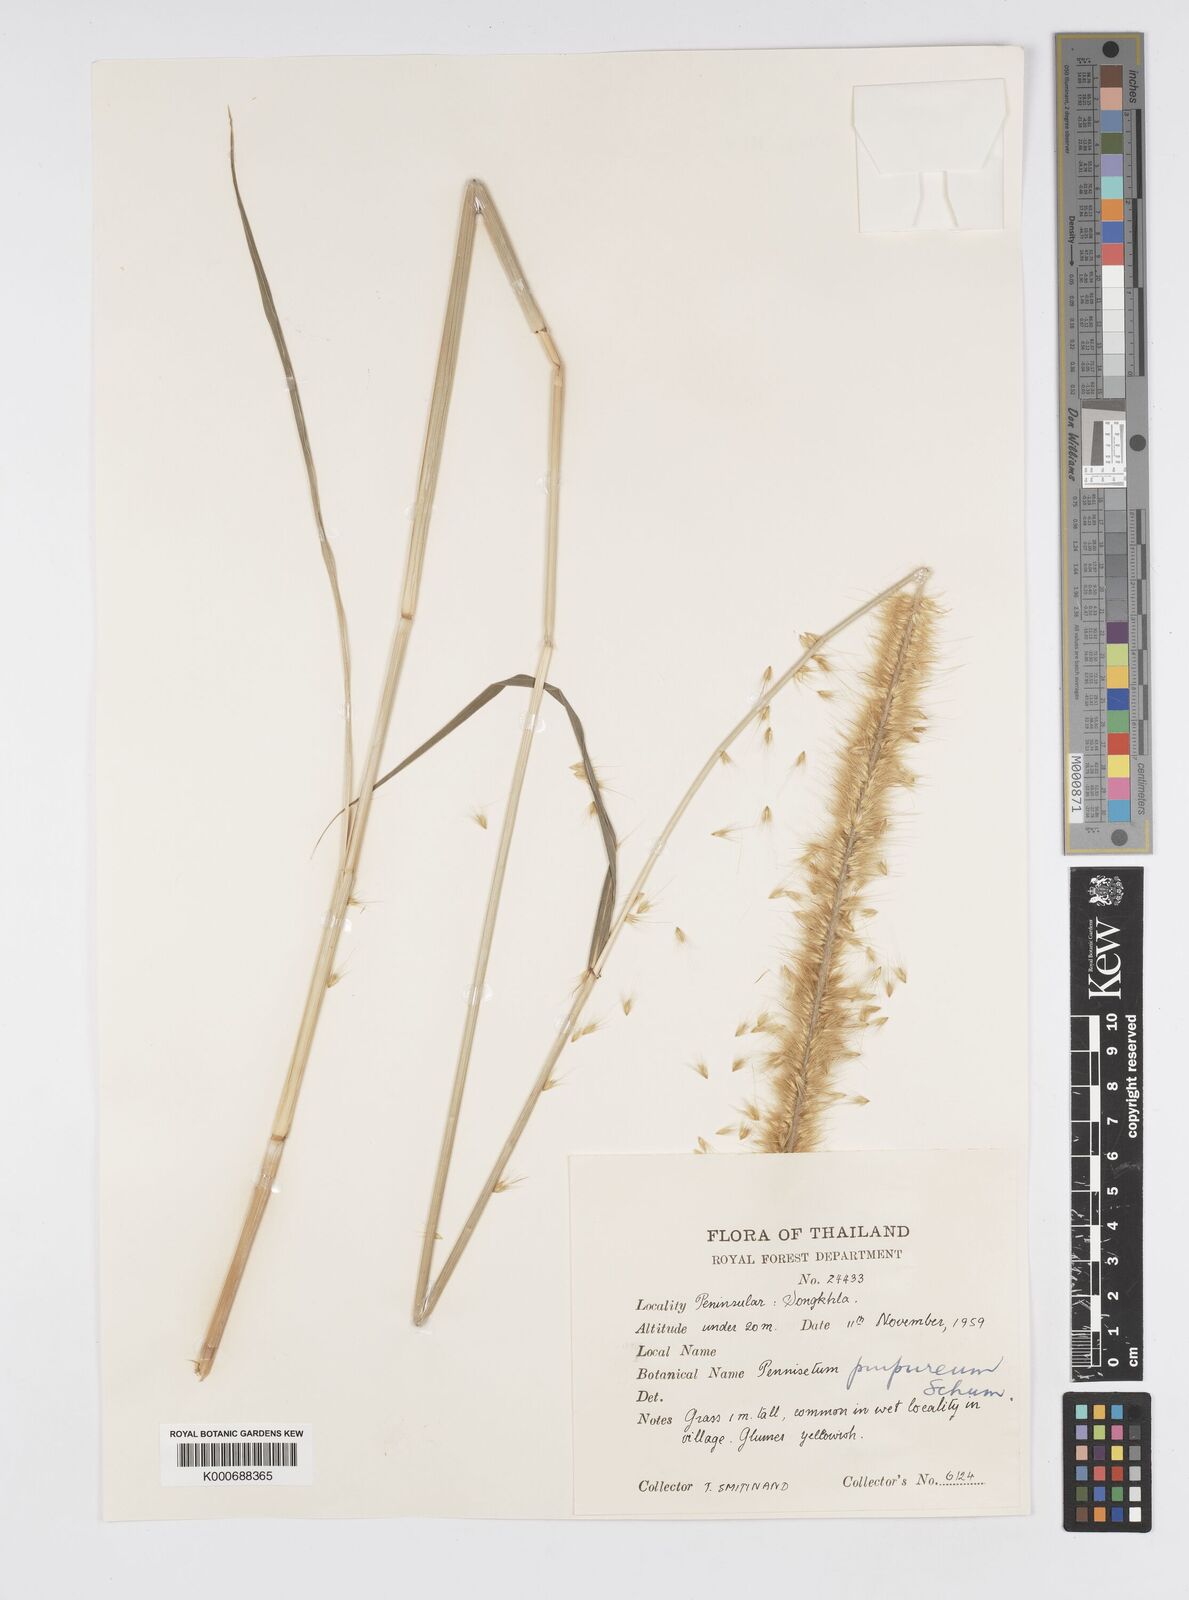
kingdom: Plantae
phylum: Tracheophyta
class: Liliopsida
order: Poales
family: Poaceae
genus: Cenchrus
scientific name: Cenchrus purpureus
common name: Elephant grass
